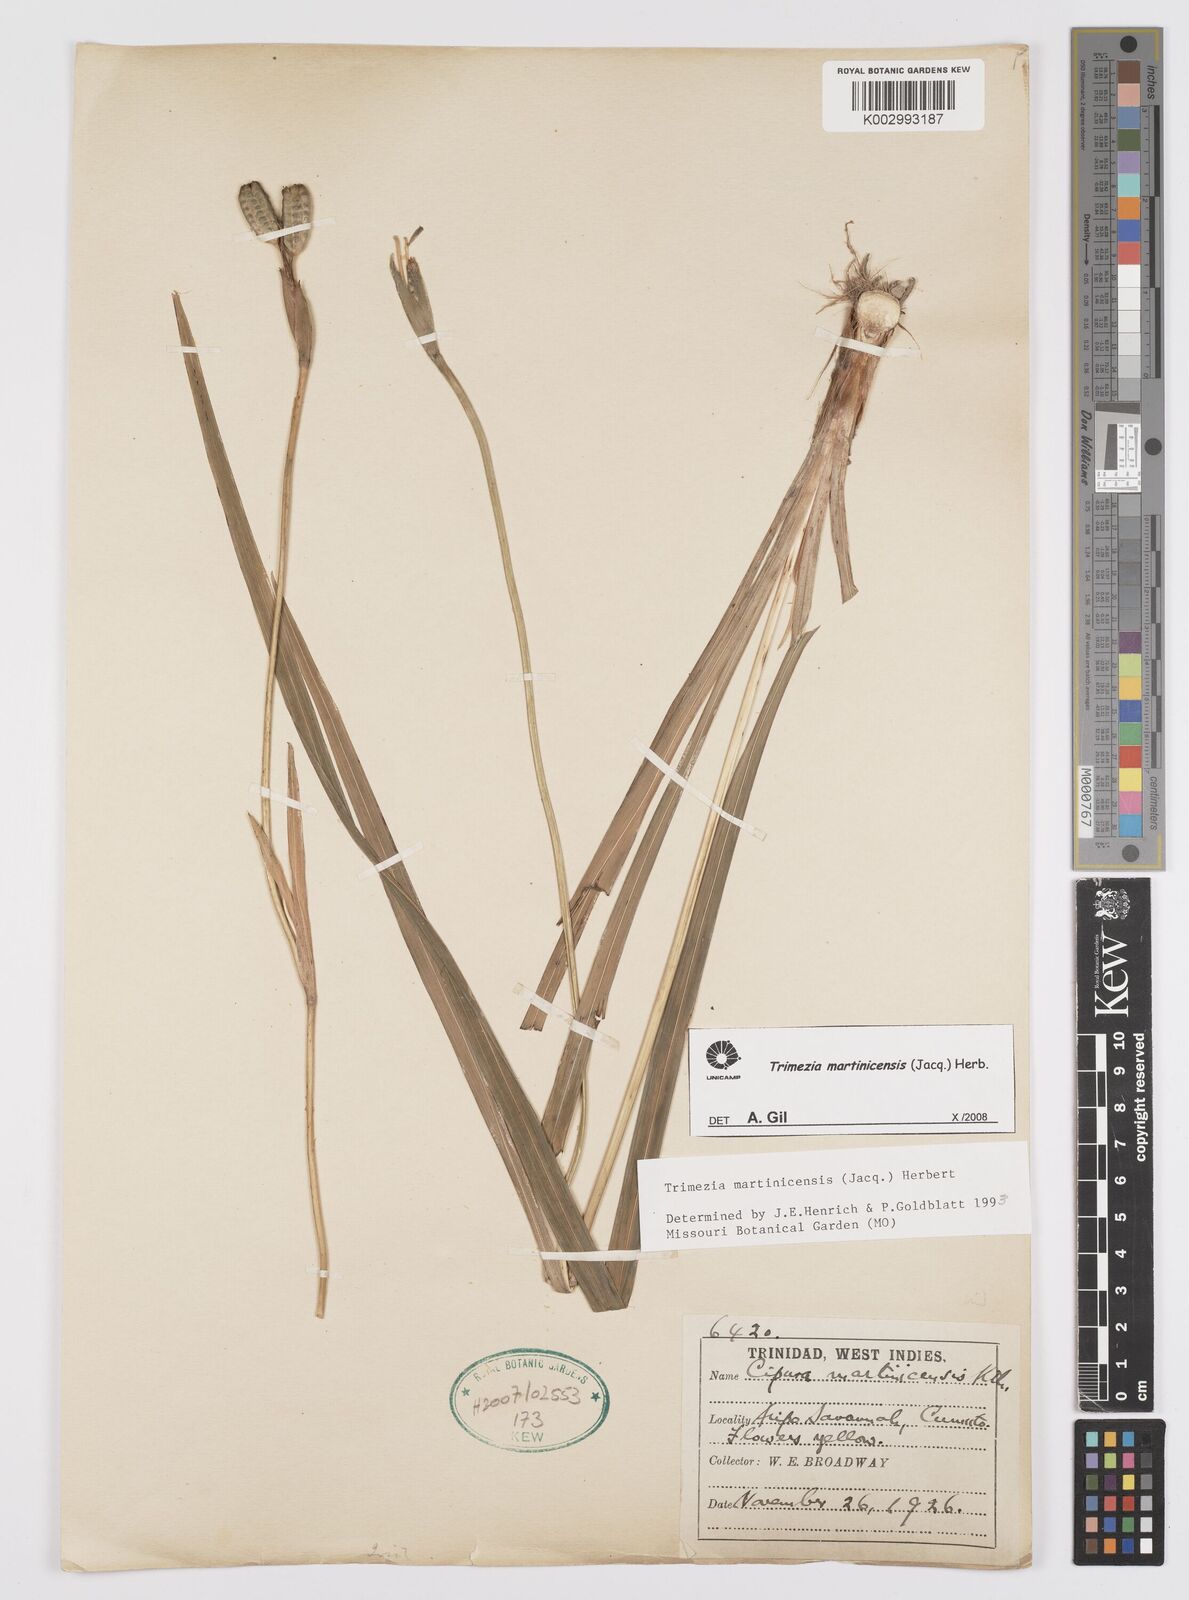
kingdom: Plantae
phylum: Tracheophyta
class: Liliopsida
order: Asparagales
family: Iridaceae
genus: Trimezia
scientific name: Trimezia martinicensis
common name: Martinique trimezia
